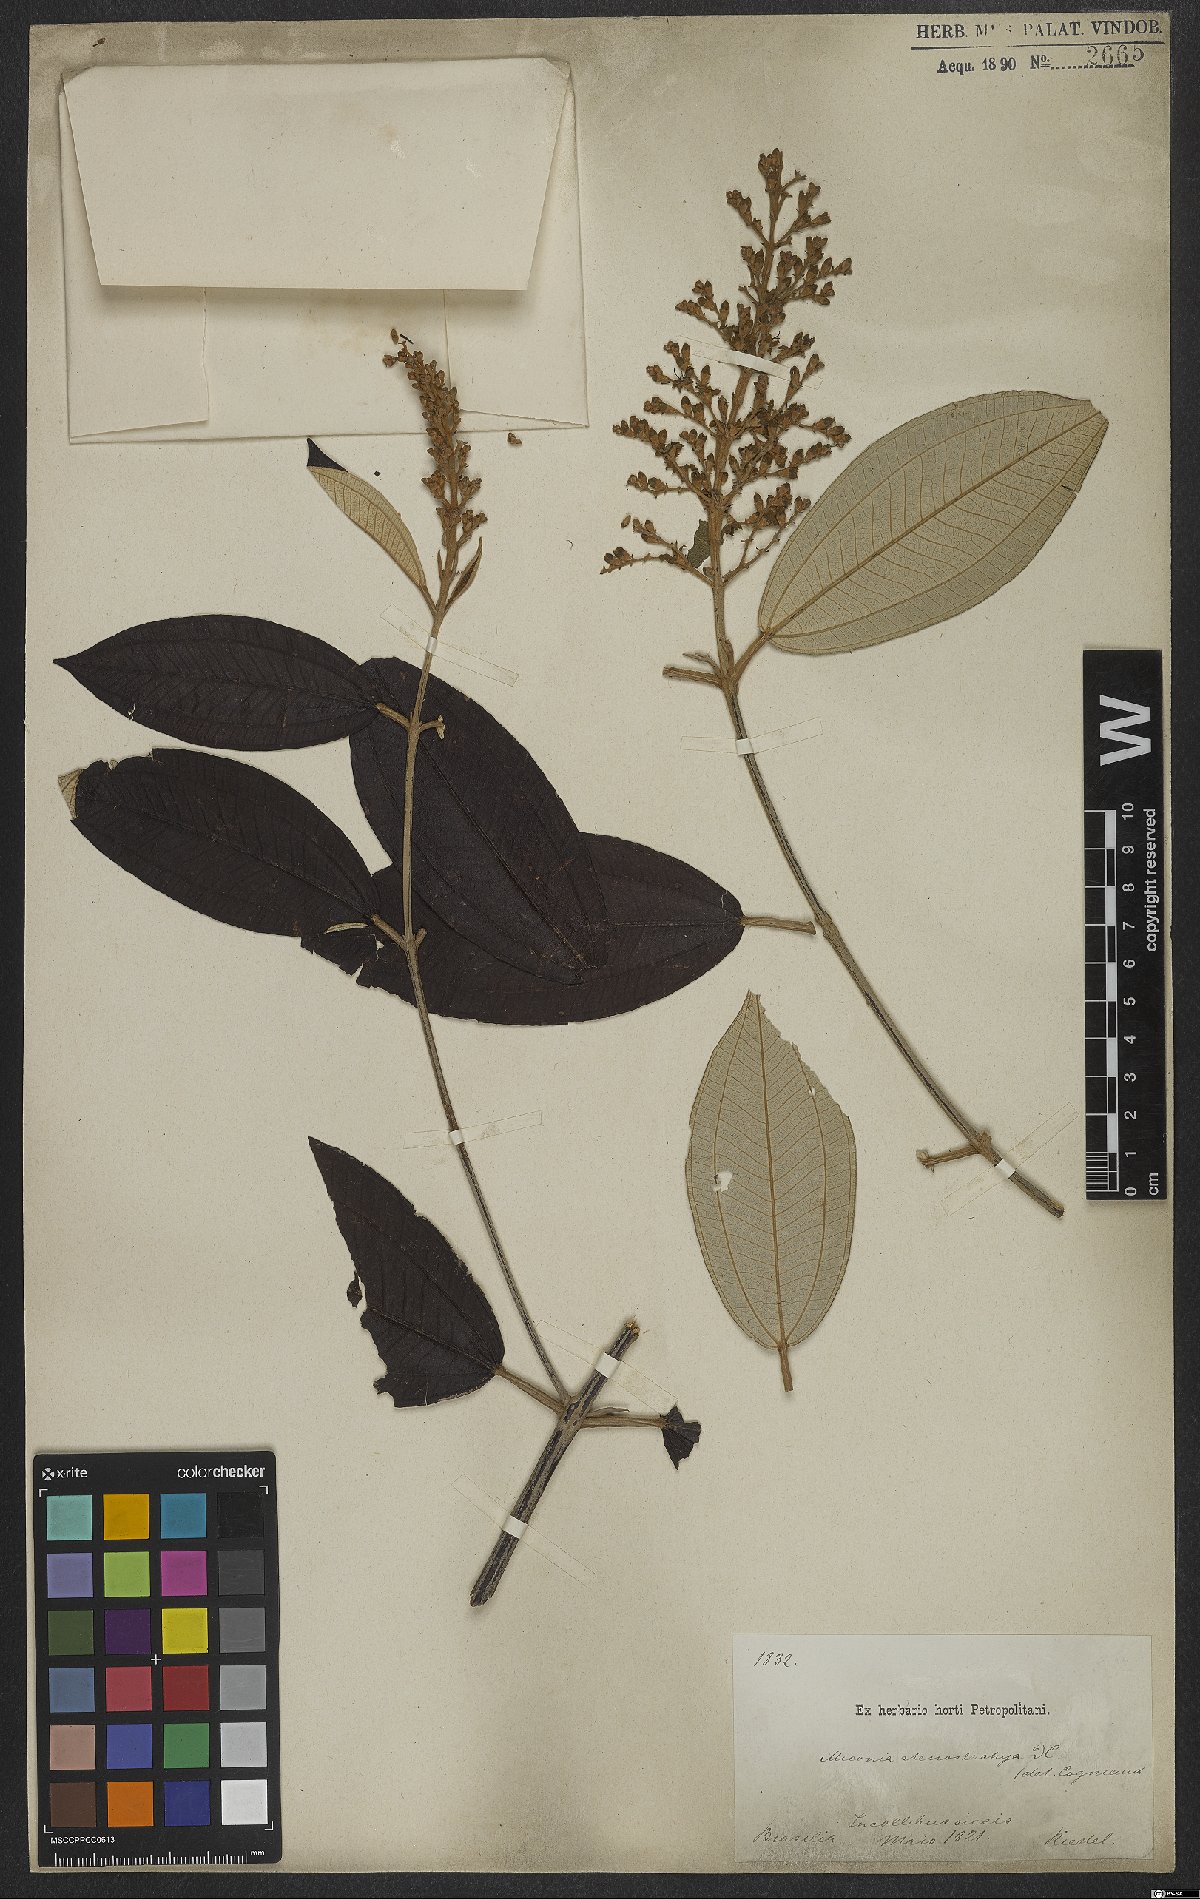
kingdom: Plantae
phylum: Tracheophyta
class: Magnoliopsida
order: Myrtales
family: Melastomataceae
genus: Miconia
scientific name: Miconia stenostachya
